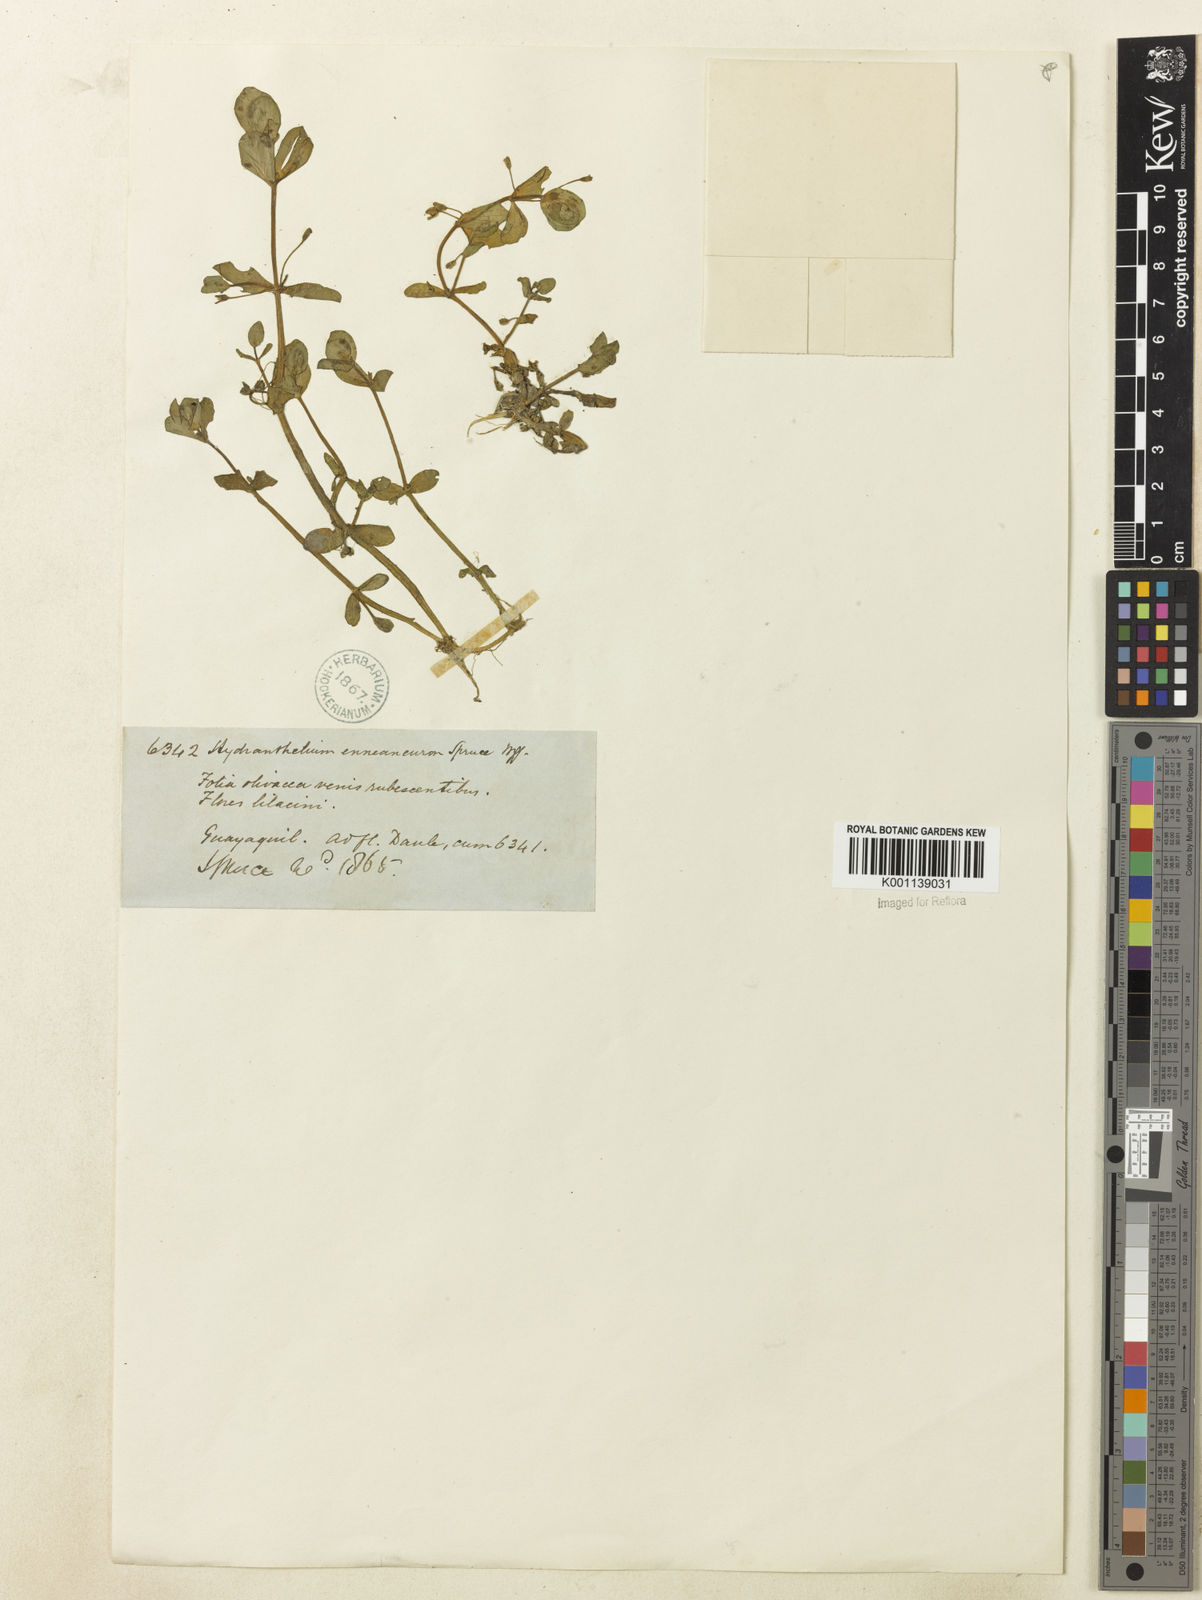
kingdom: Plantae
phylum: Tracheophyta
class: Magnoliopsida
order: Lamiales
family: Plantaginaceae
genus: Bacopa
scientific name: Bacopa egensis
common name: Brazilian waterhyssop
